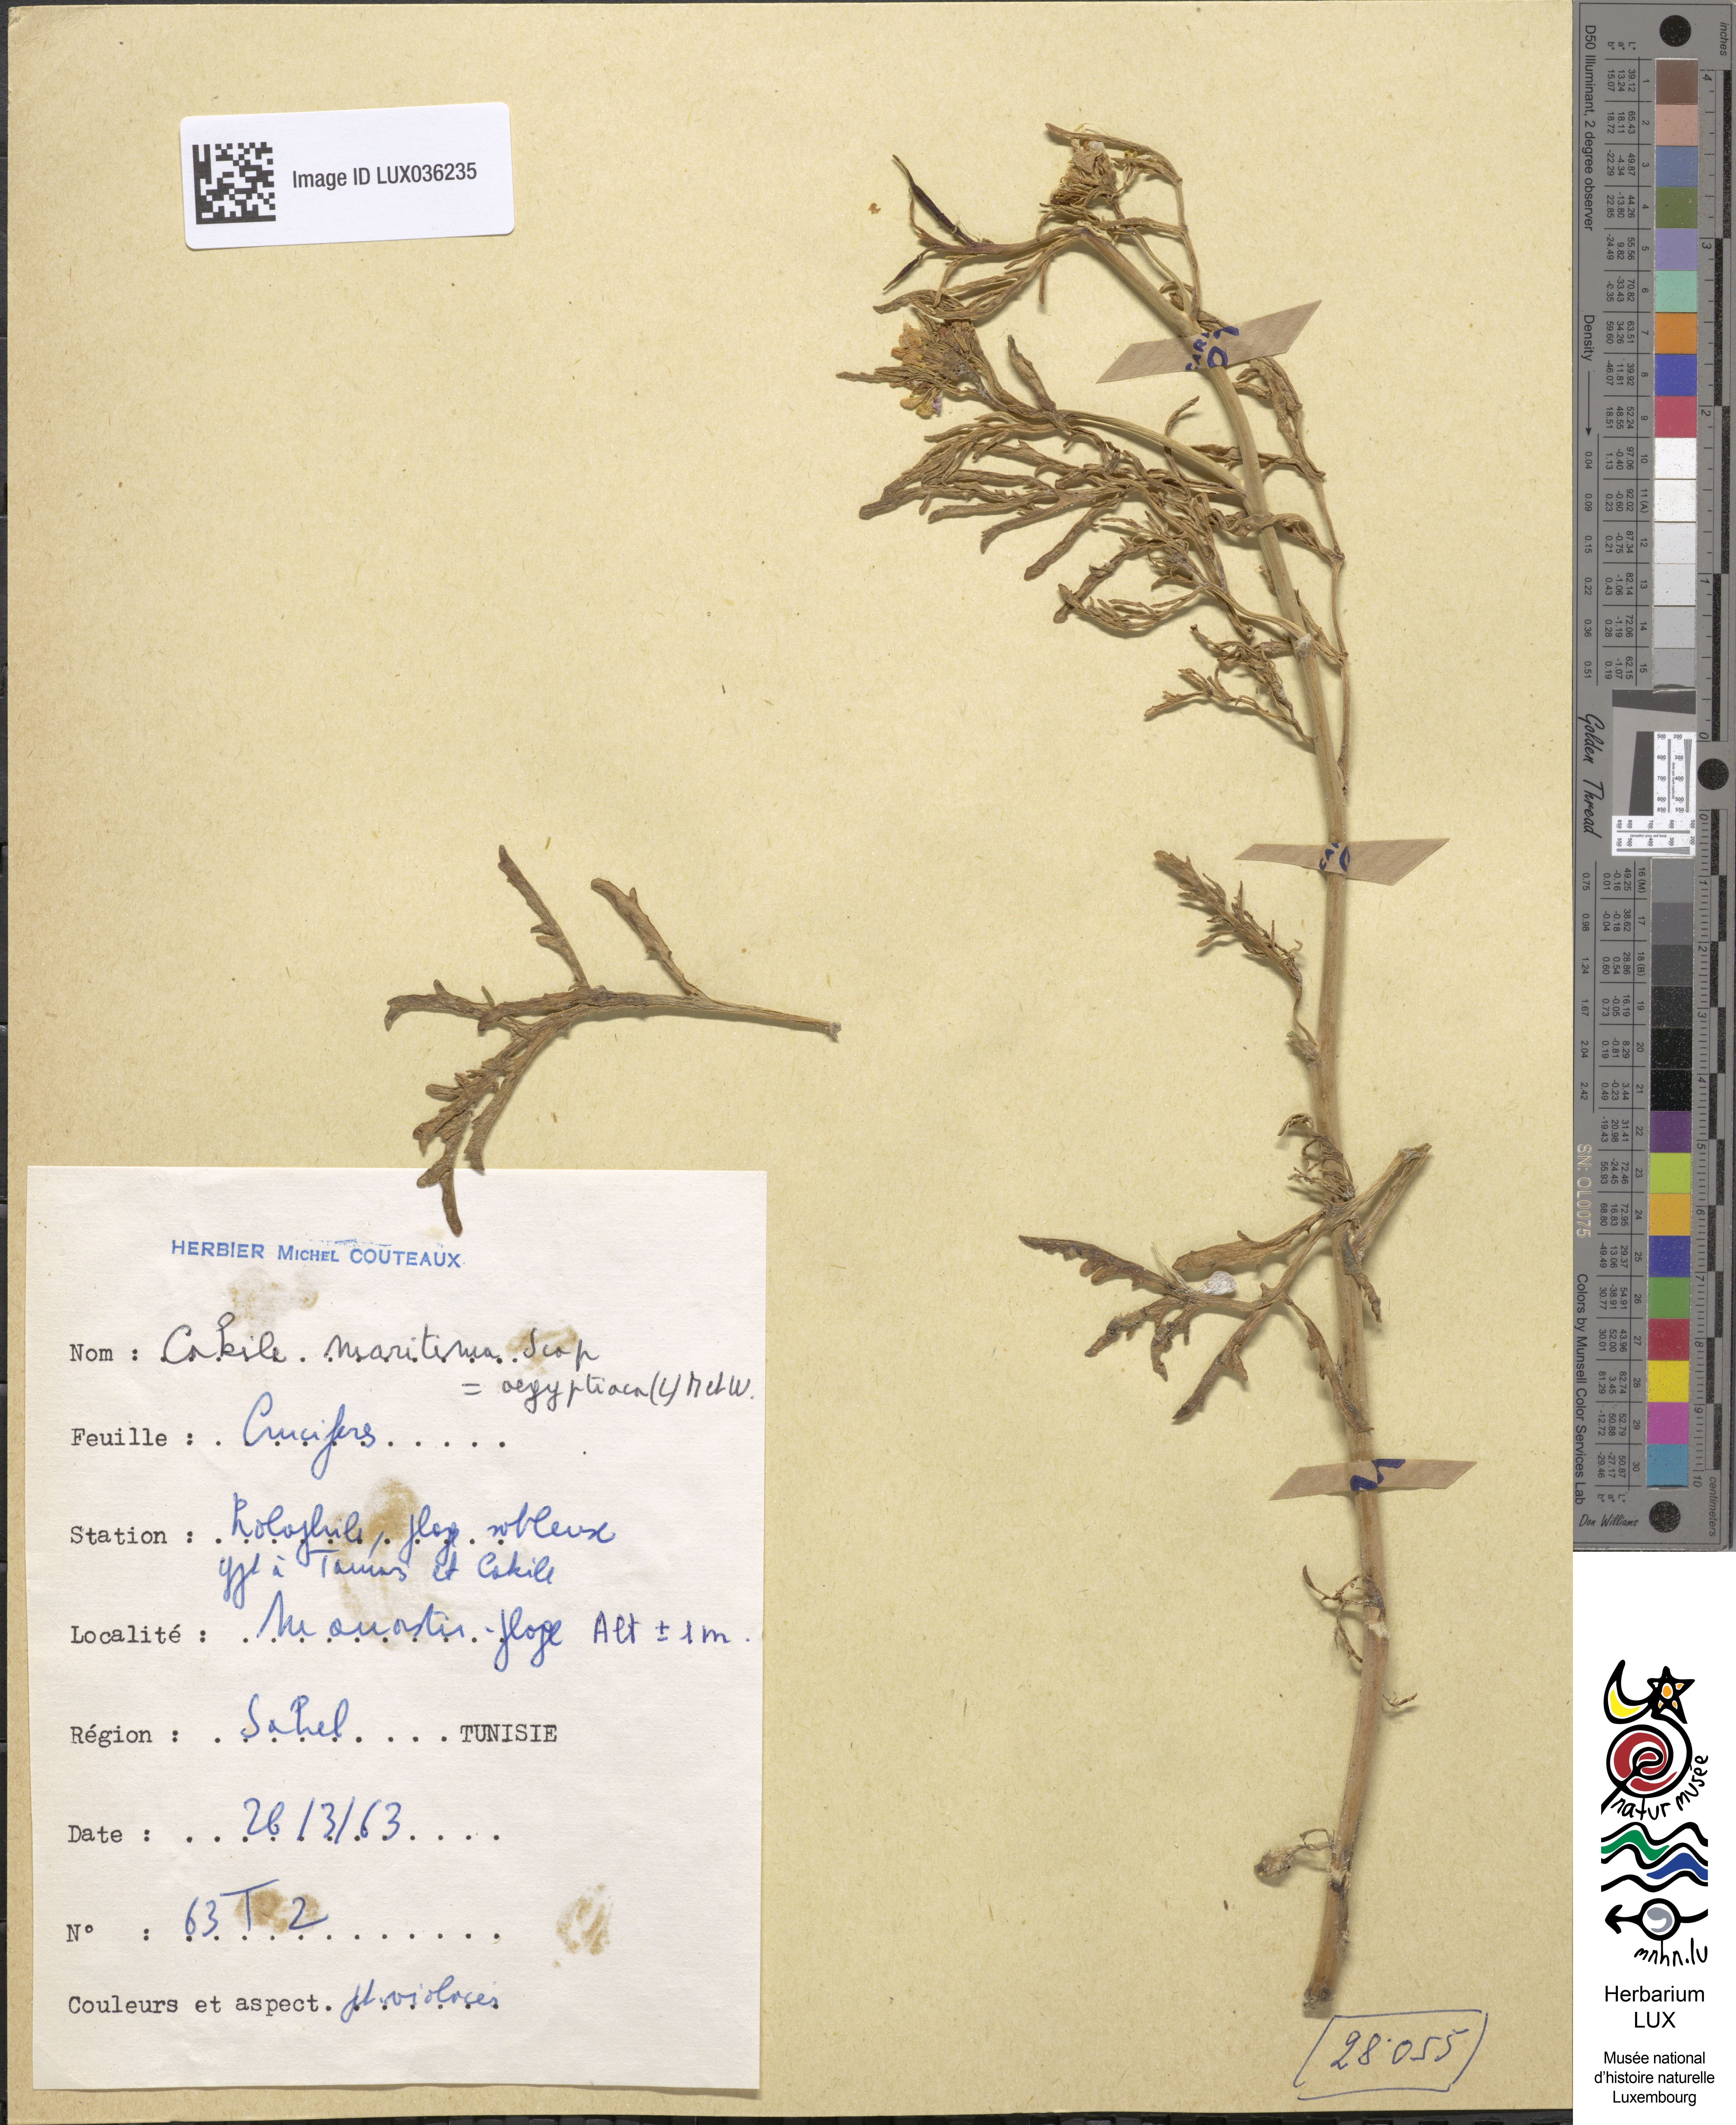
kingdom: Plantae
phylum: Tracheophyta
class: Magnoliopsida
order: Brassicales
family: Brassicaceae
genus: Cakile
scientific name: Cakile maritima
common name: Sea rocket
